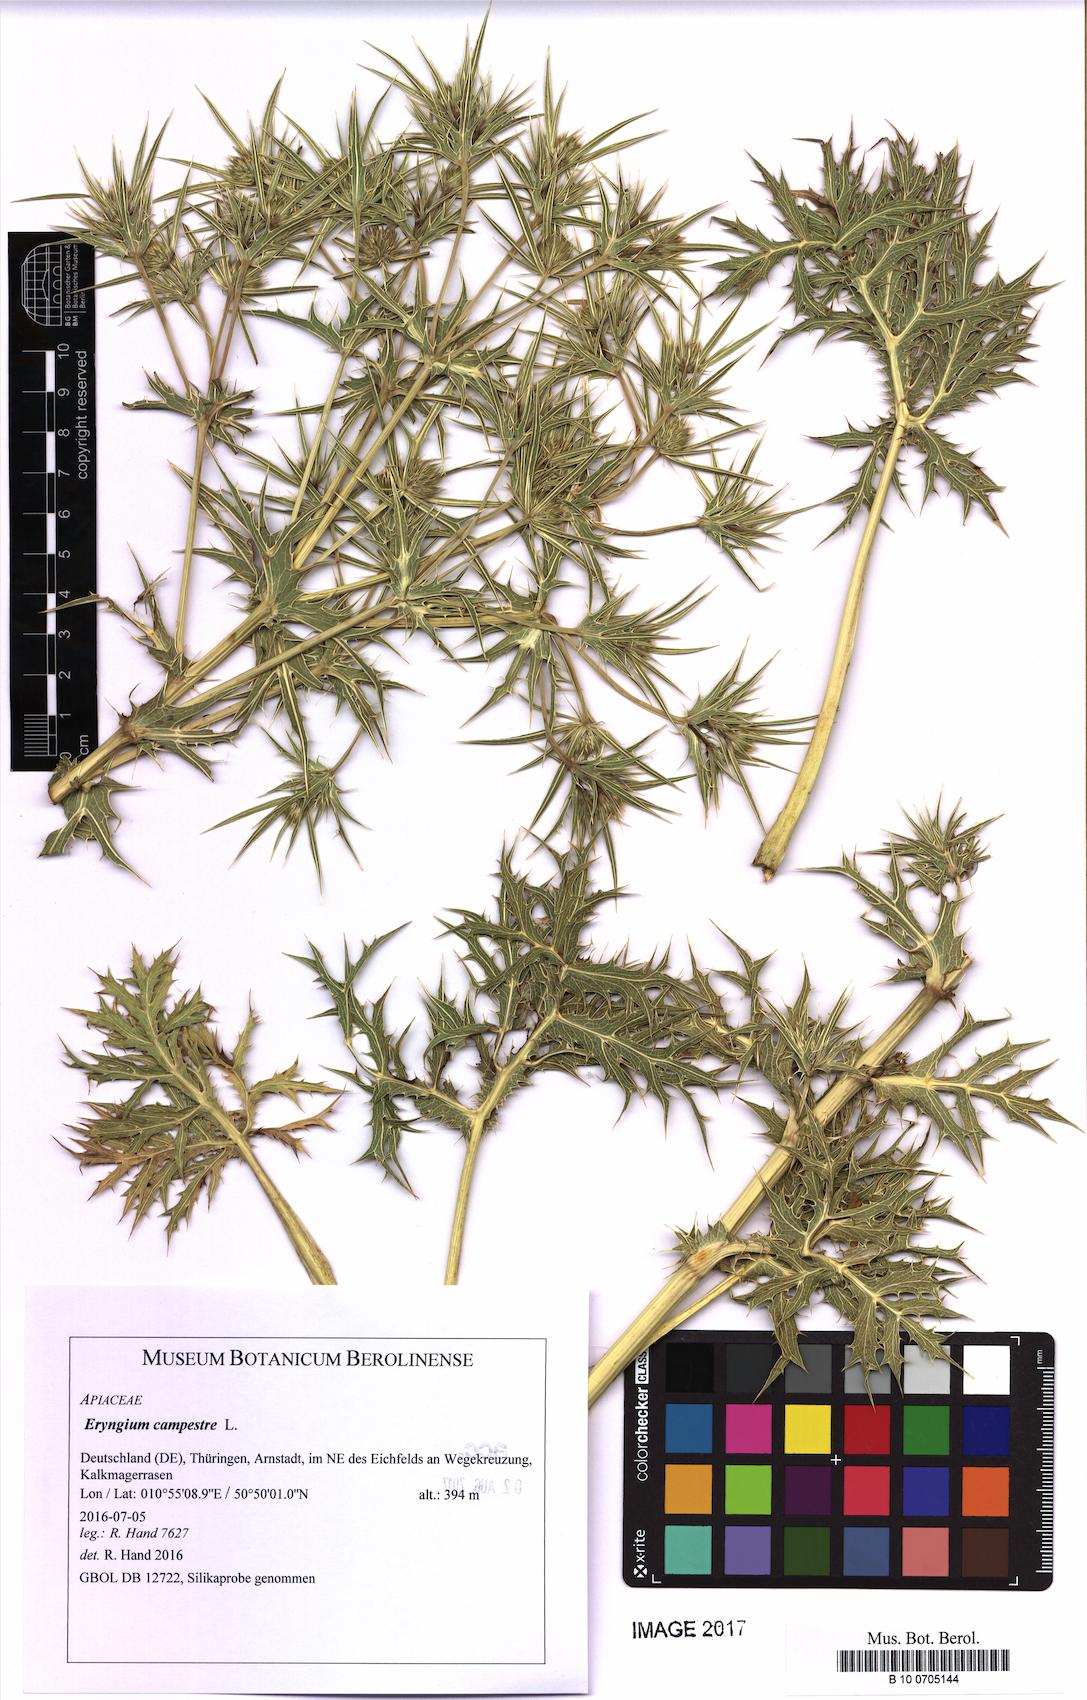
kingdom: Plantae
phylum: Tracheophyta
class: Magnoliopsida
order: Apiales
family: Apiaceae
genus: Eryngium
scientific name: Eryngium campestre
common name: Field eryngo
